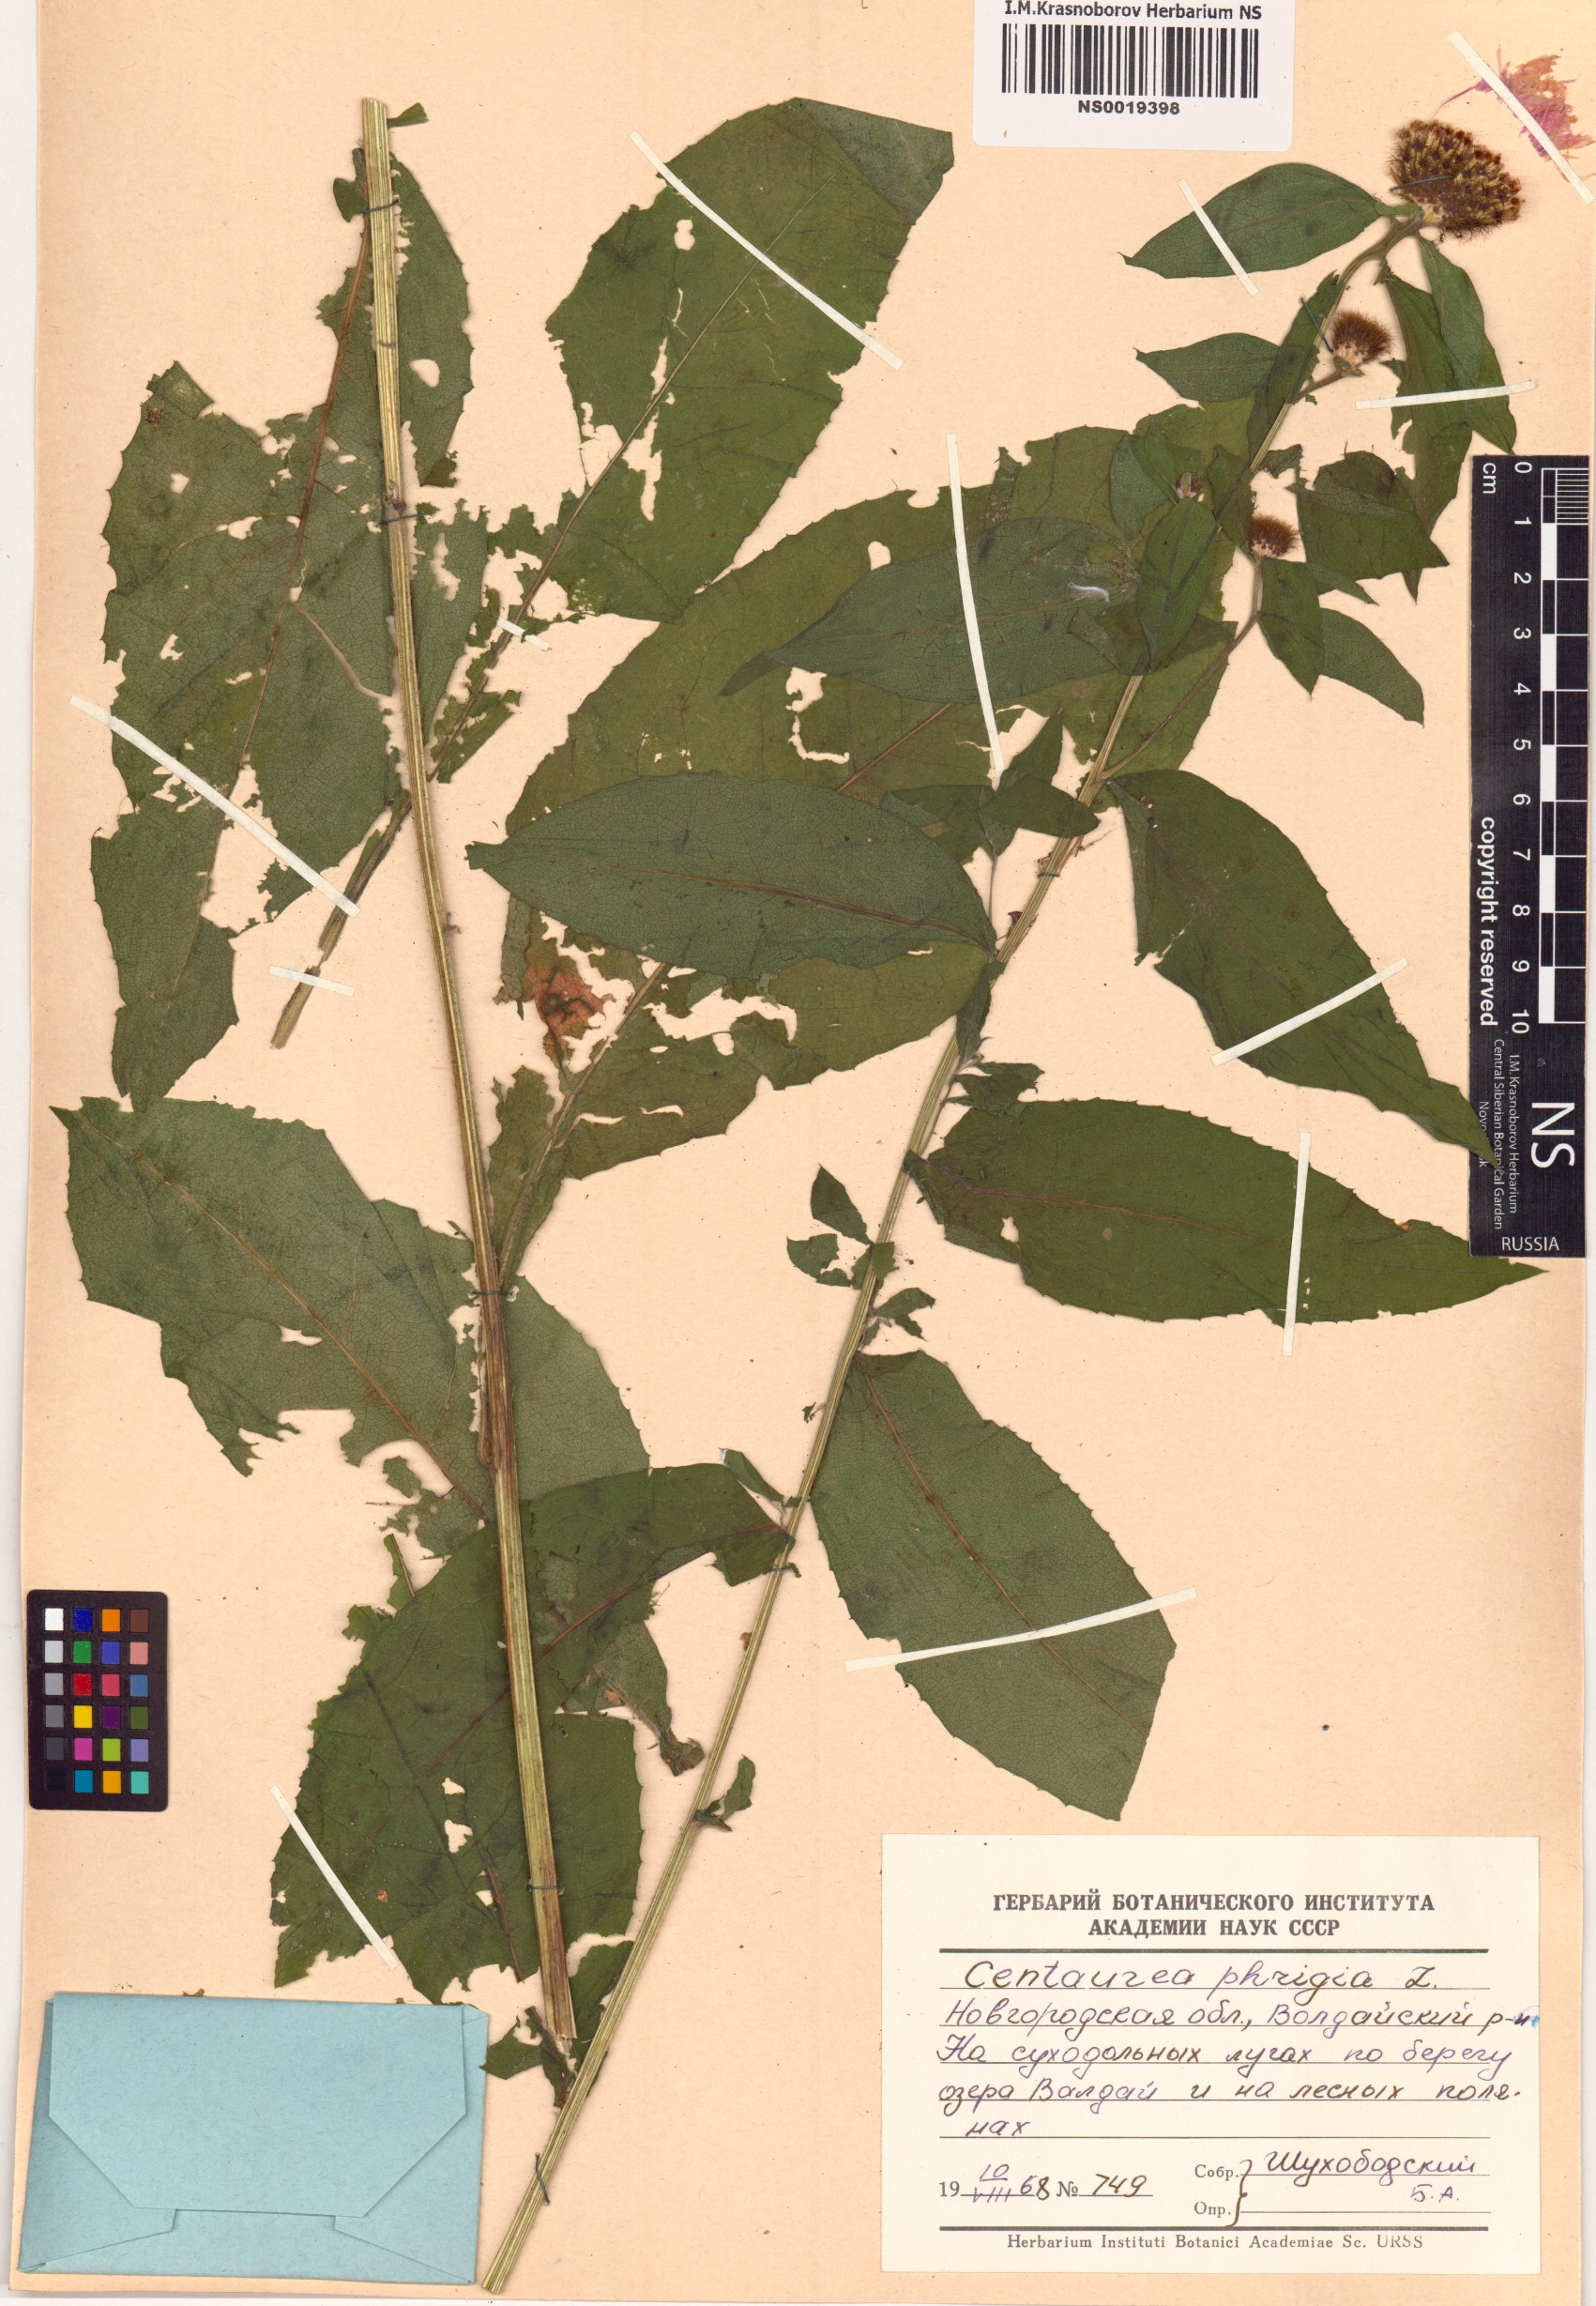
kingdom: Plantae
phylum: Tracheophyta
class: Magnoliopsida
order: Asterales
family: Asteraceae
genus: Centaurea
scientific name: Centaurea phrygia
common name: Wig knapweed
